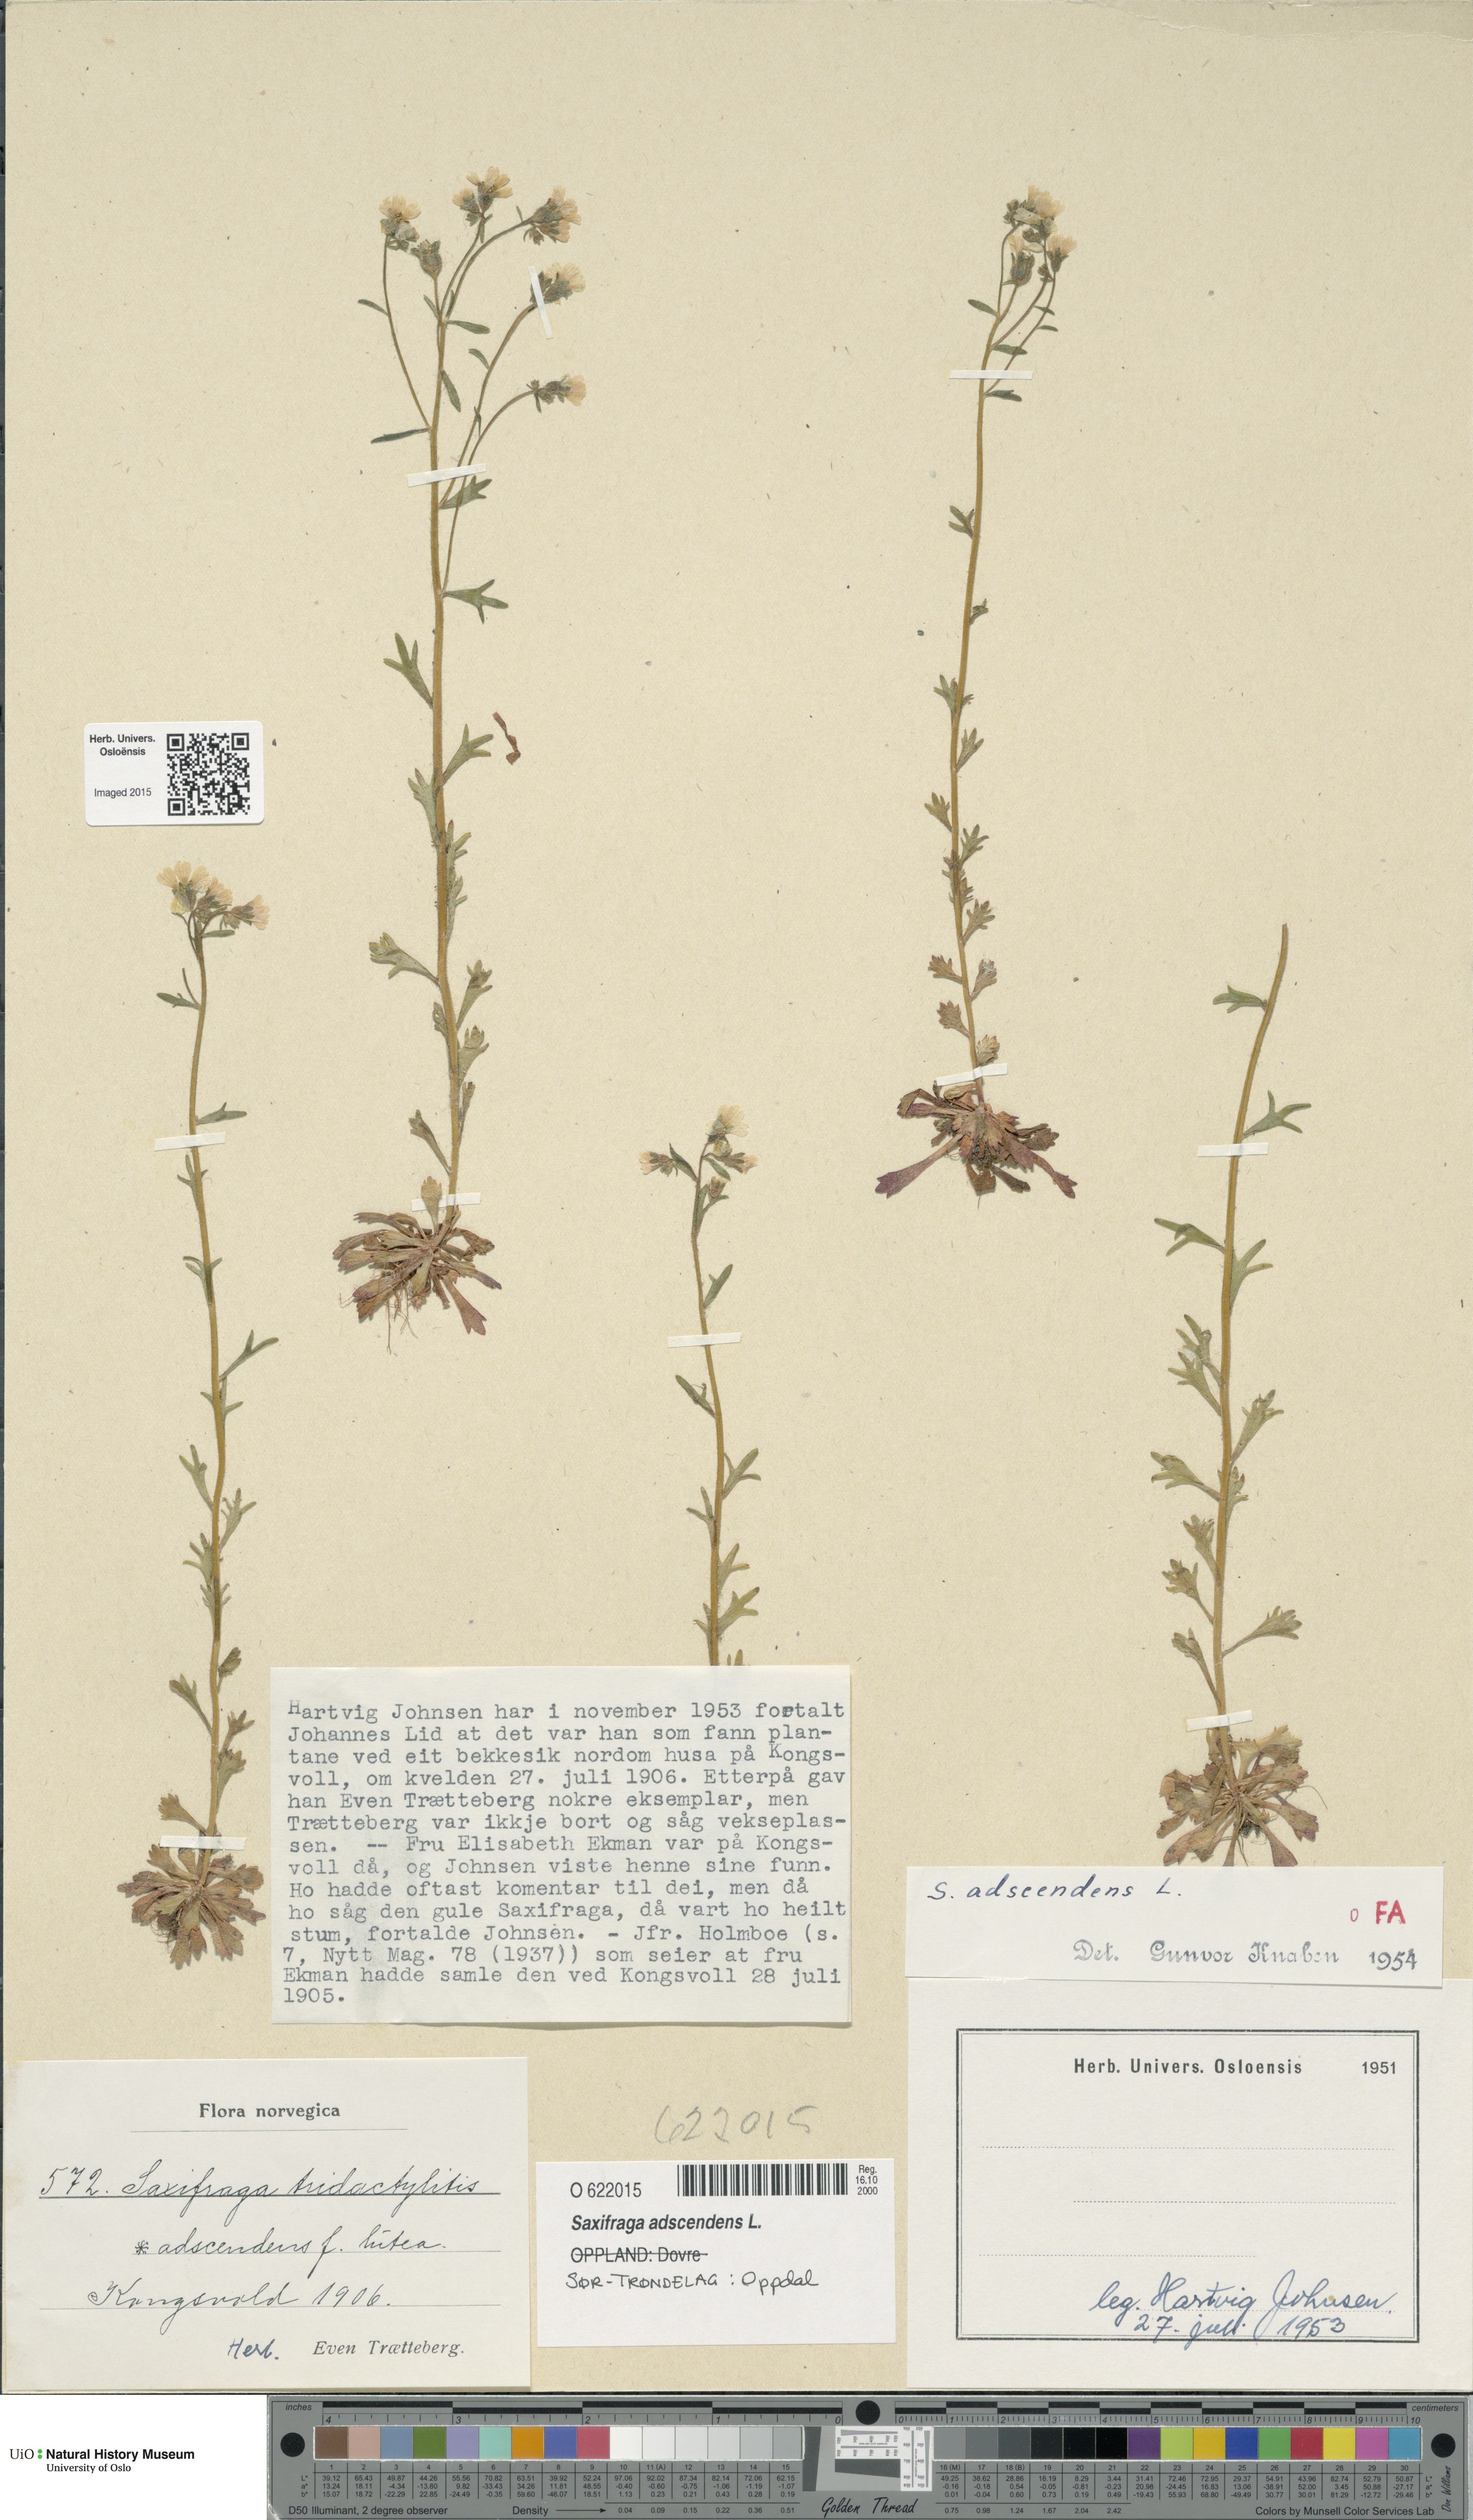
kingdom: Plantae
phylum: Tracheophyta
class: Magnoliopsida
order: Saxifragales
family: Saxifragaceae
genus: Saxifraga
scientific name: Saxifraga adscendens
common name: Ascending saxifrage
